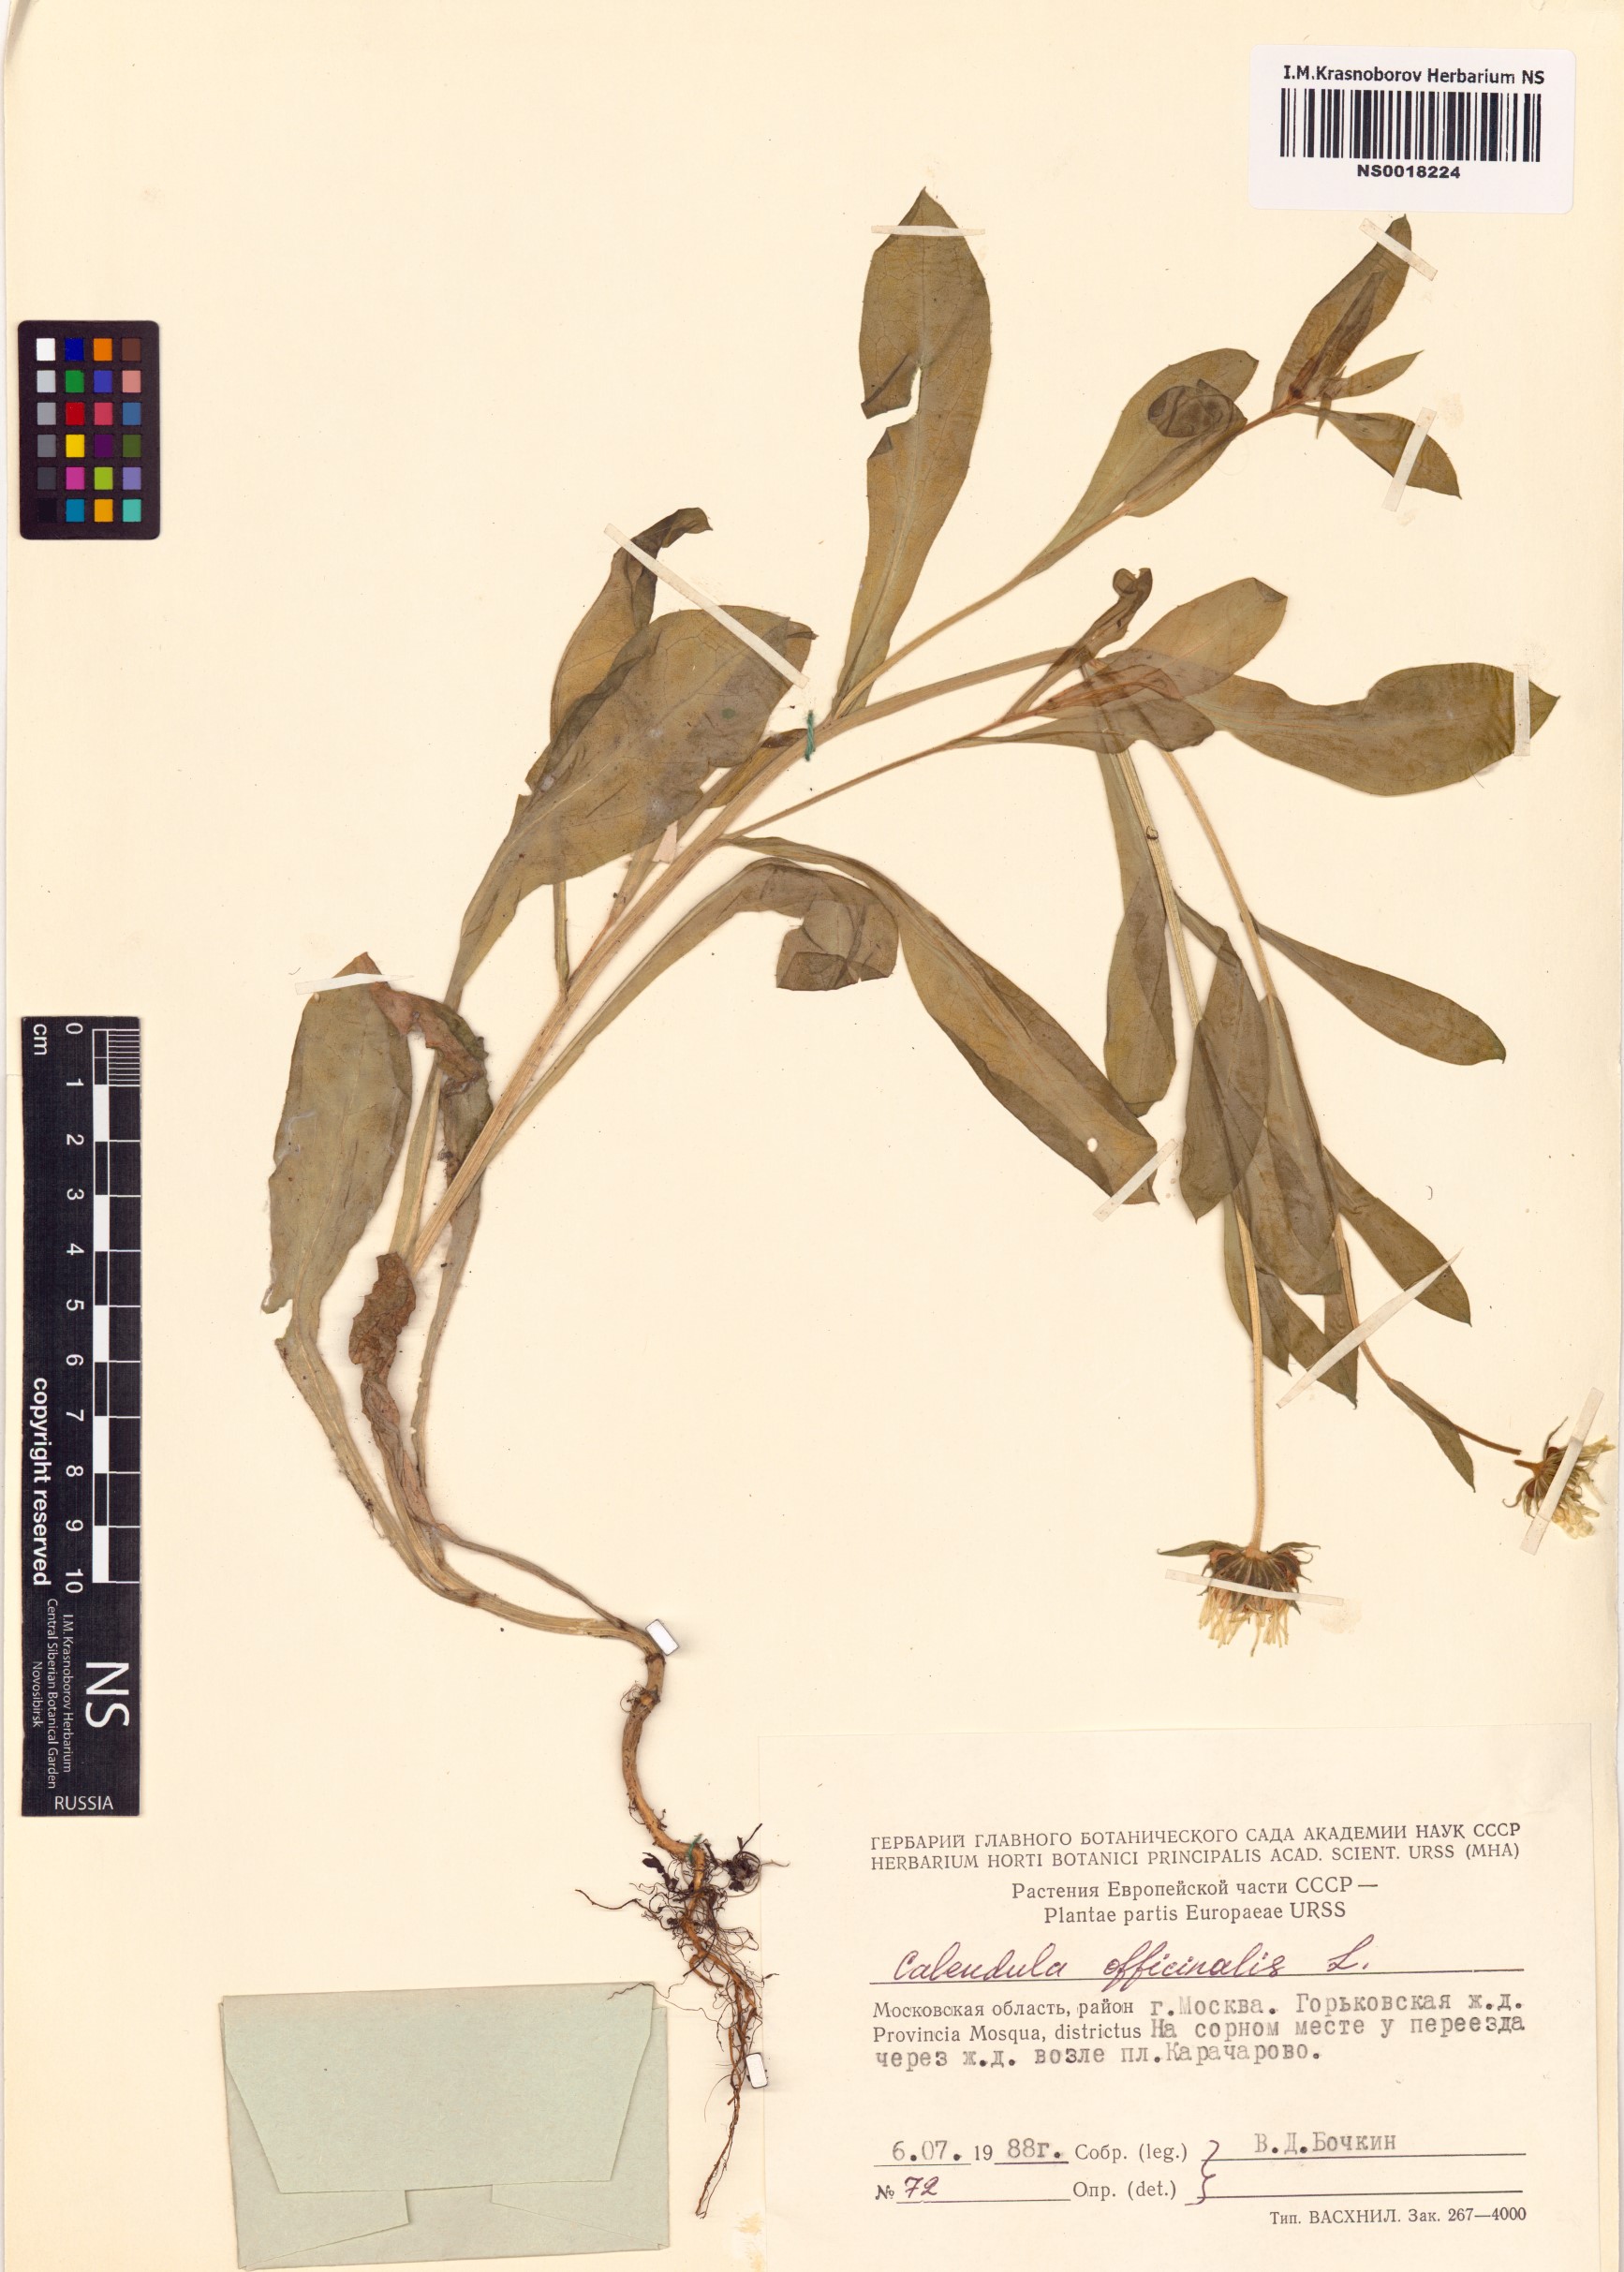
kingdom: Plantae
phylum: Tracheophyta
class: Magnoliopsida
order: Asterales
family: Asteraceae
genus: Calendula
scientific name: Calendula officinalis
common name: Pot marigold
